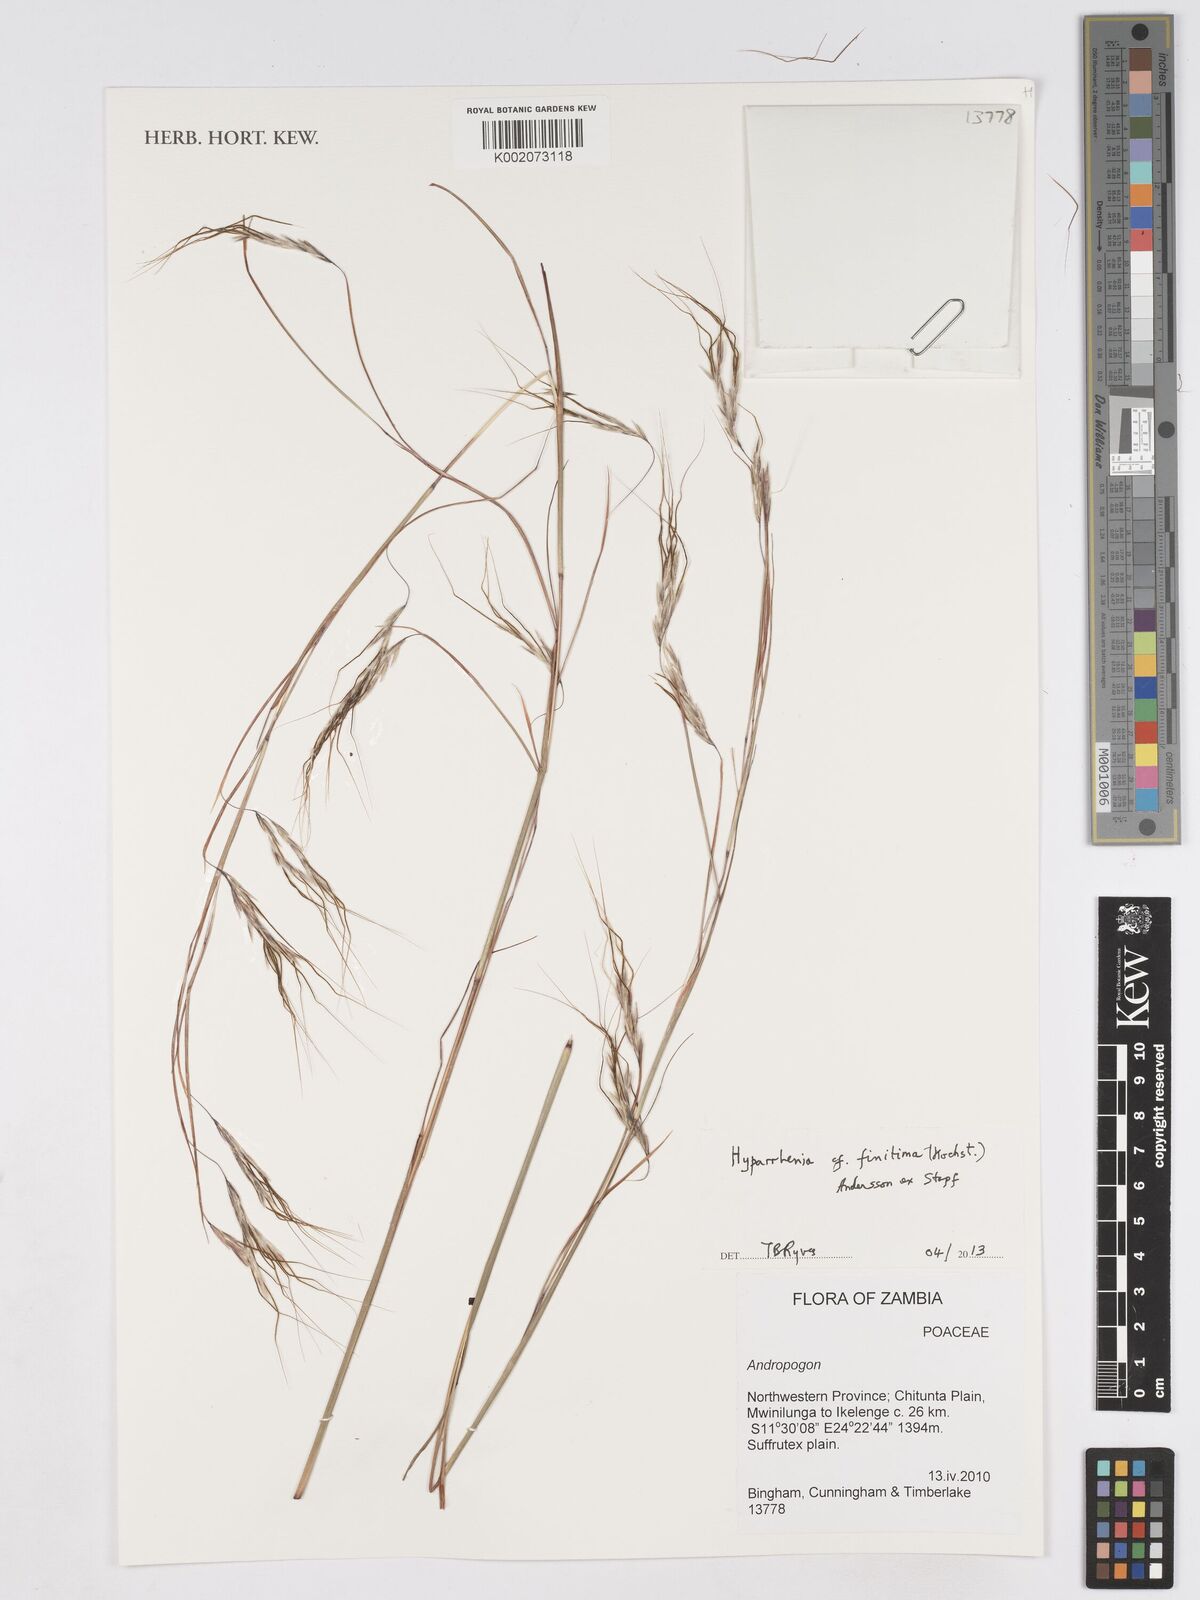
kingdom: Plantae
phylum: Tracheophyta
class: Liliopsida
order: Poales
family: Poaceae
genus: Hyparrhenia
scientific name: Hyparrhenia finitima
